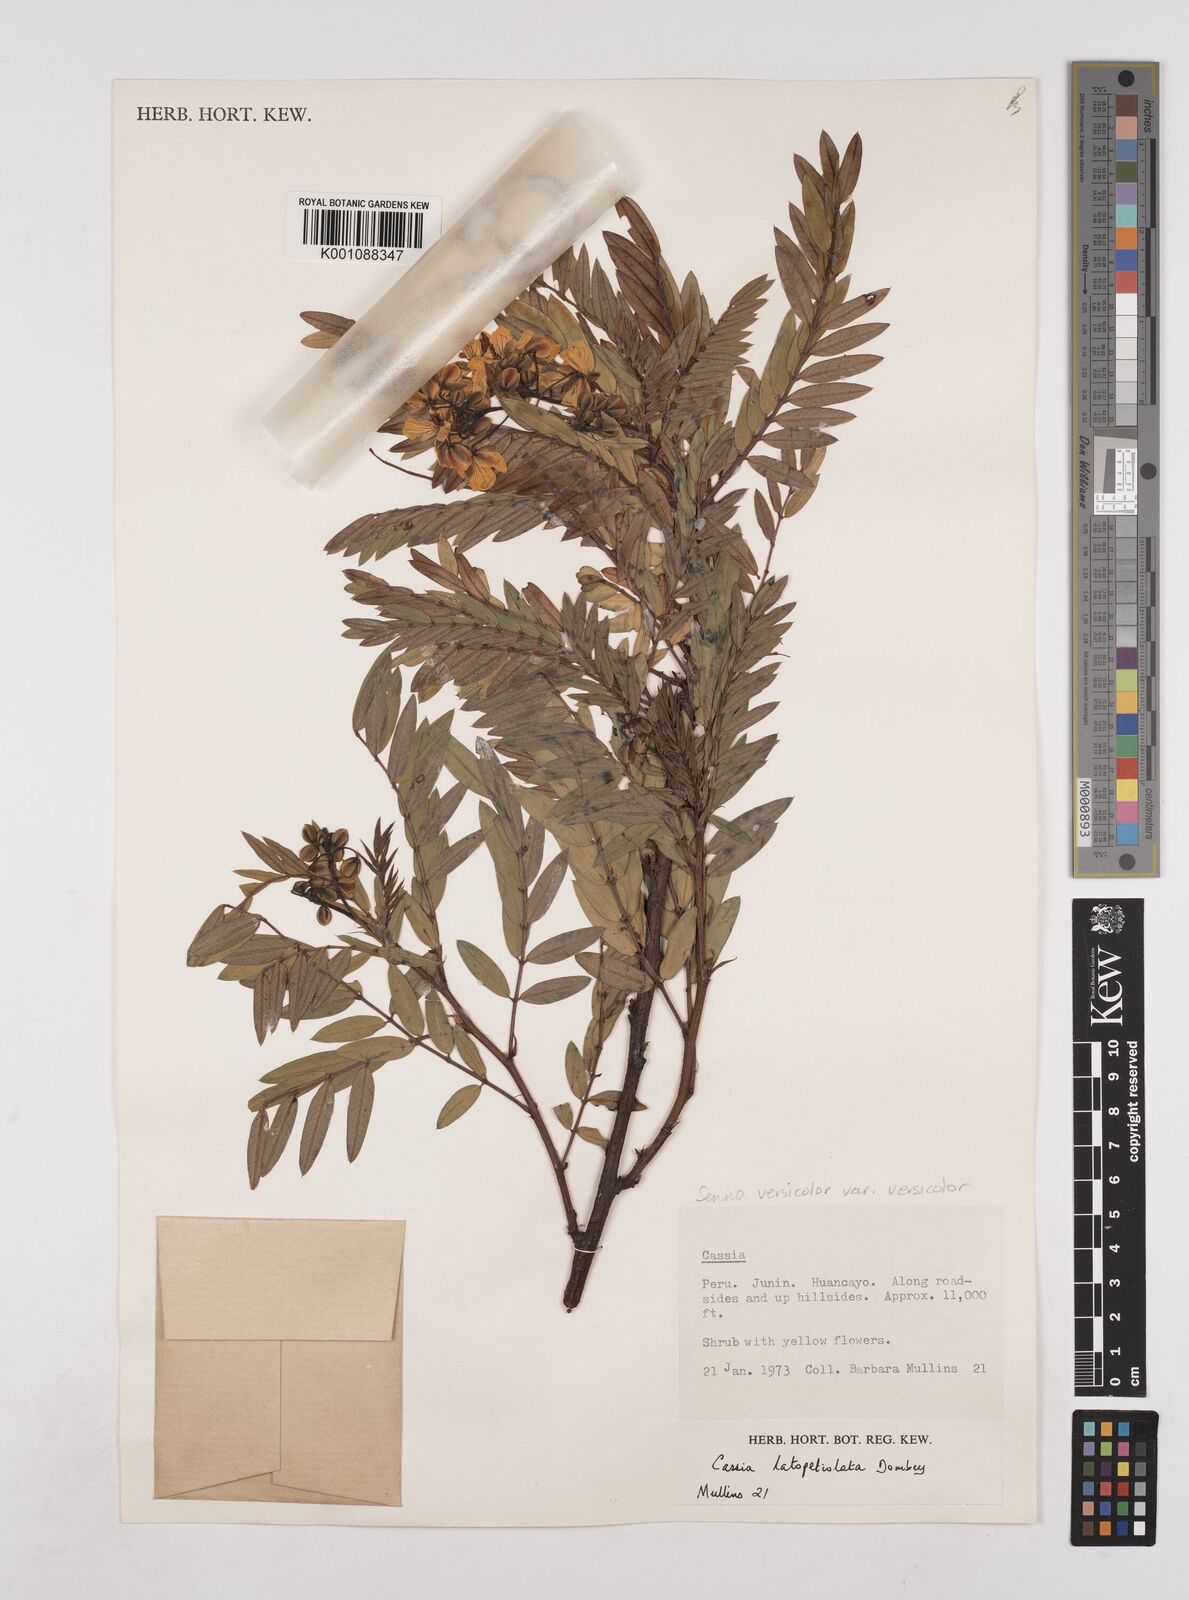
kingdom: Plantae
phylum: Tracheophyta
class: Magnoliopsida
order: Fabales
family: Fabaceae
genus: Senna
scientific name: Senna versicolor
